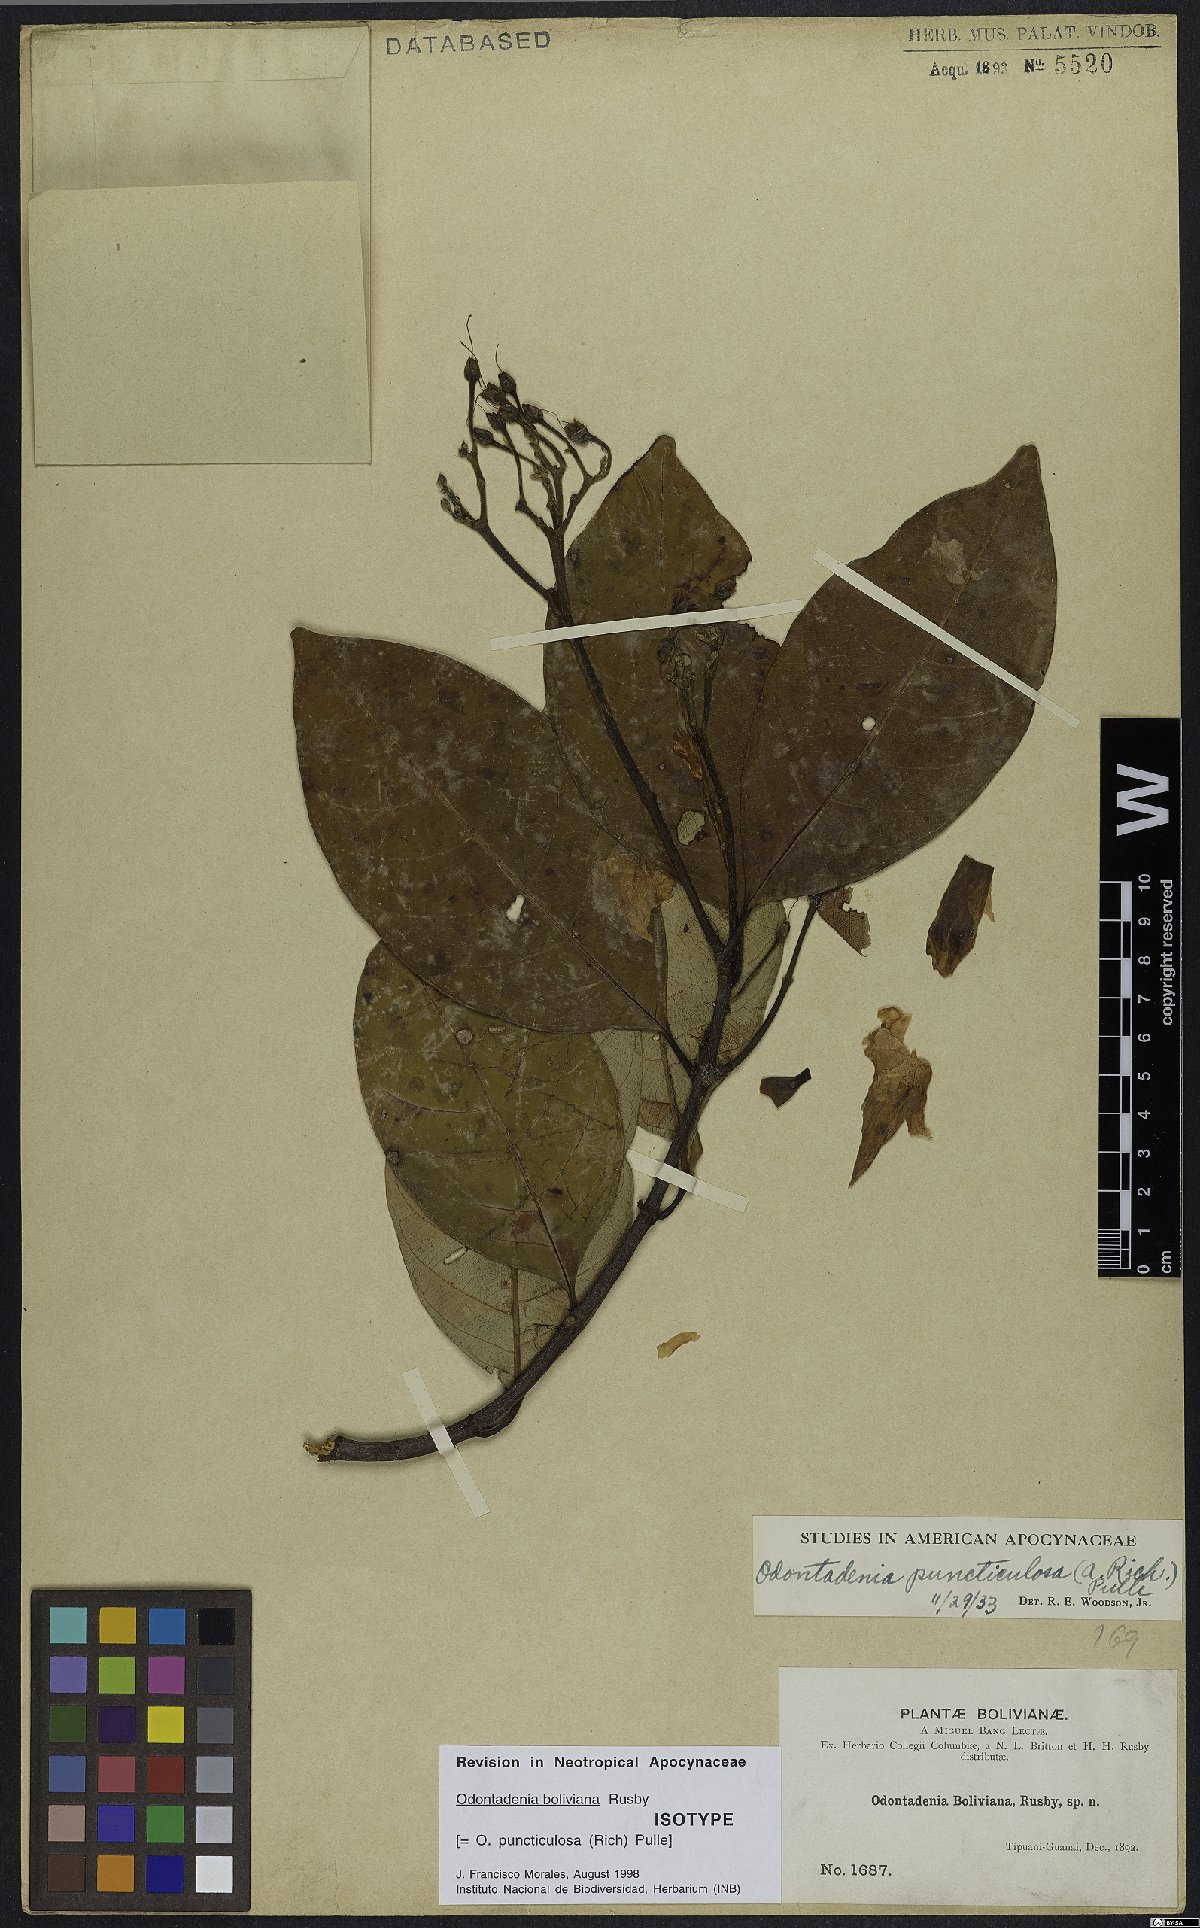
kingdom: Plantae
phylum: Tracheophyta
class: Magnoliopsida
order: Gentianales
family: Apocynaceae
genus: Odontadenia
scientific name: Odontadenia puncticulosa
